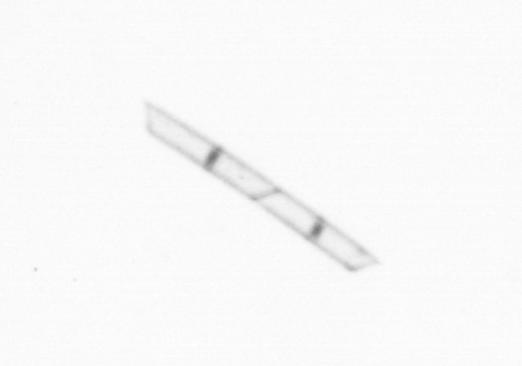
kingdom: Chromista
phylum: Ochrophyta
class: Bacillariophyceae
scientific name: Bacillariophyceae
